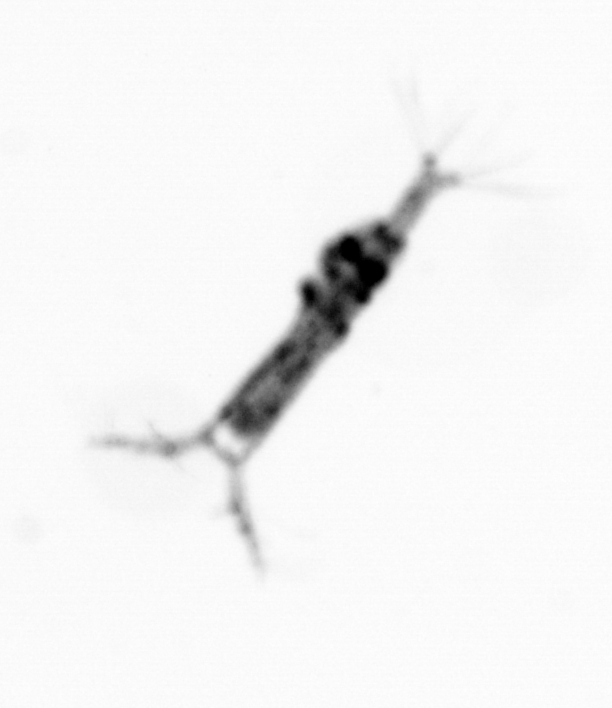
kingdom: Animalia
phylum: Arthropoda
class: Copepoda
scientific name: Copepoda
